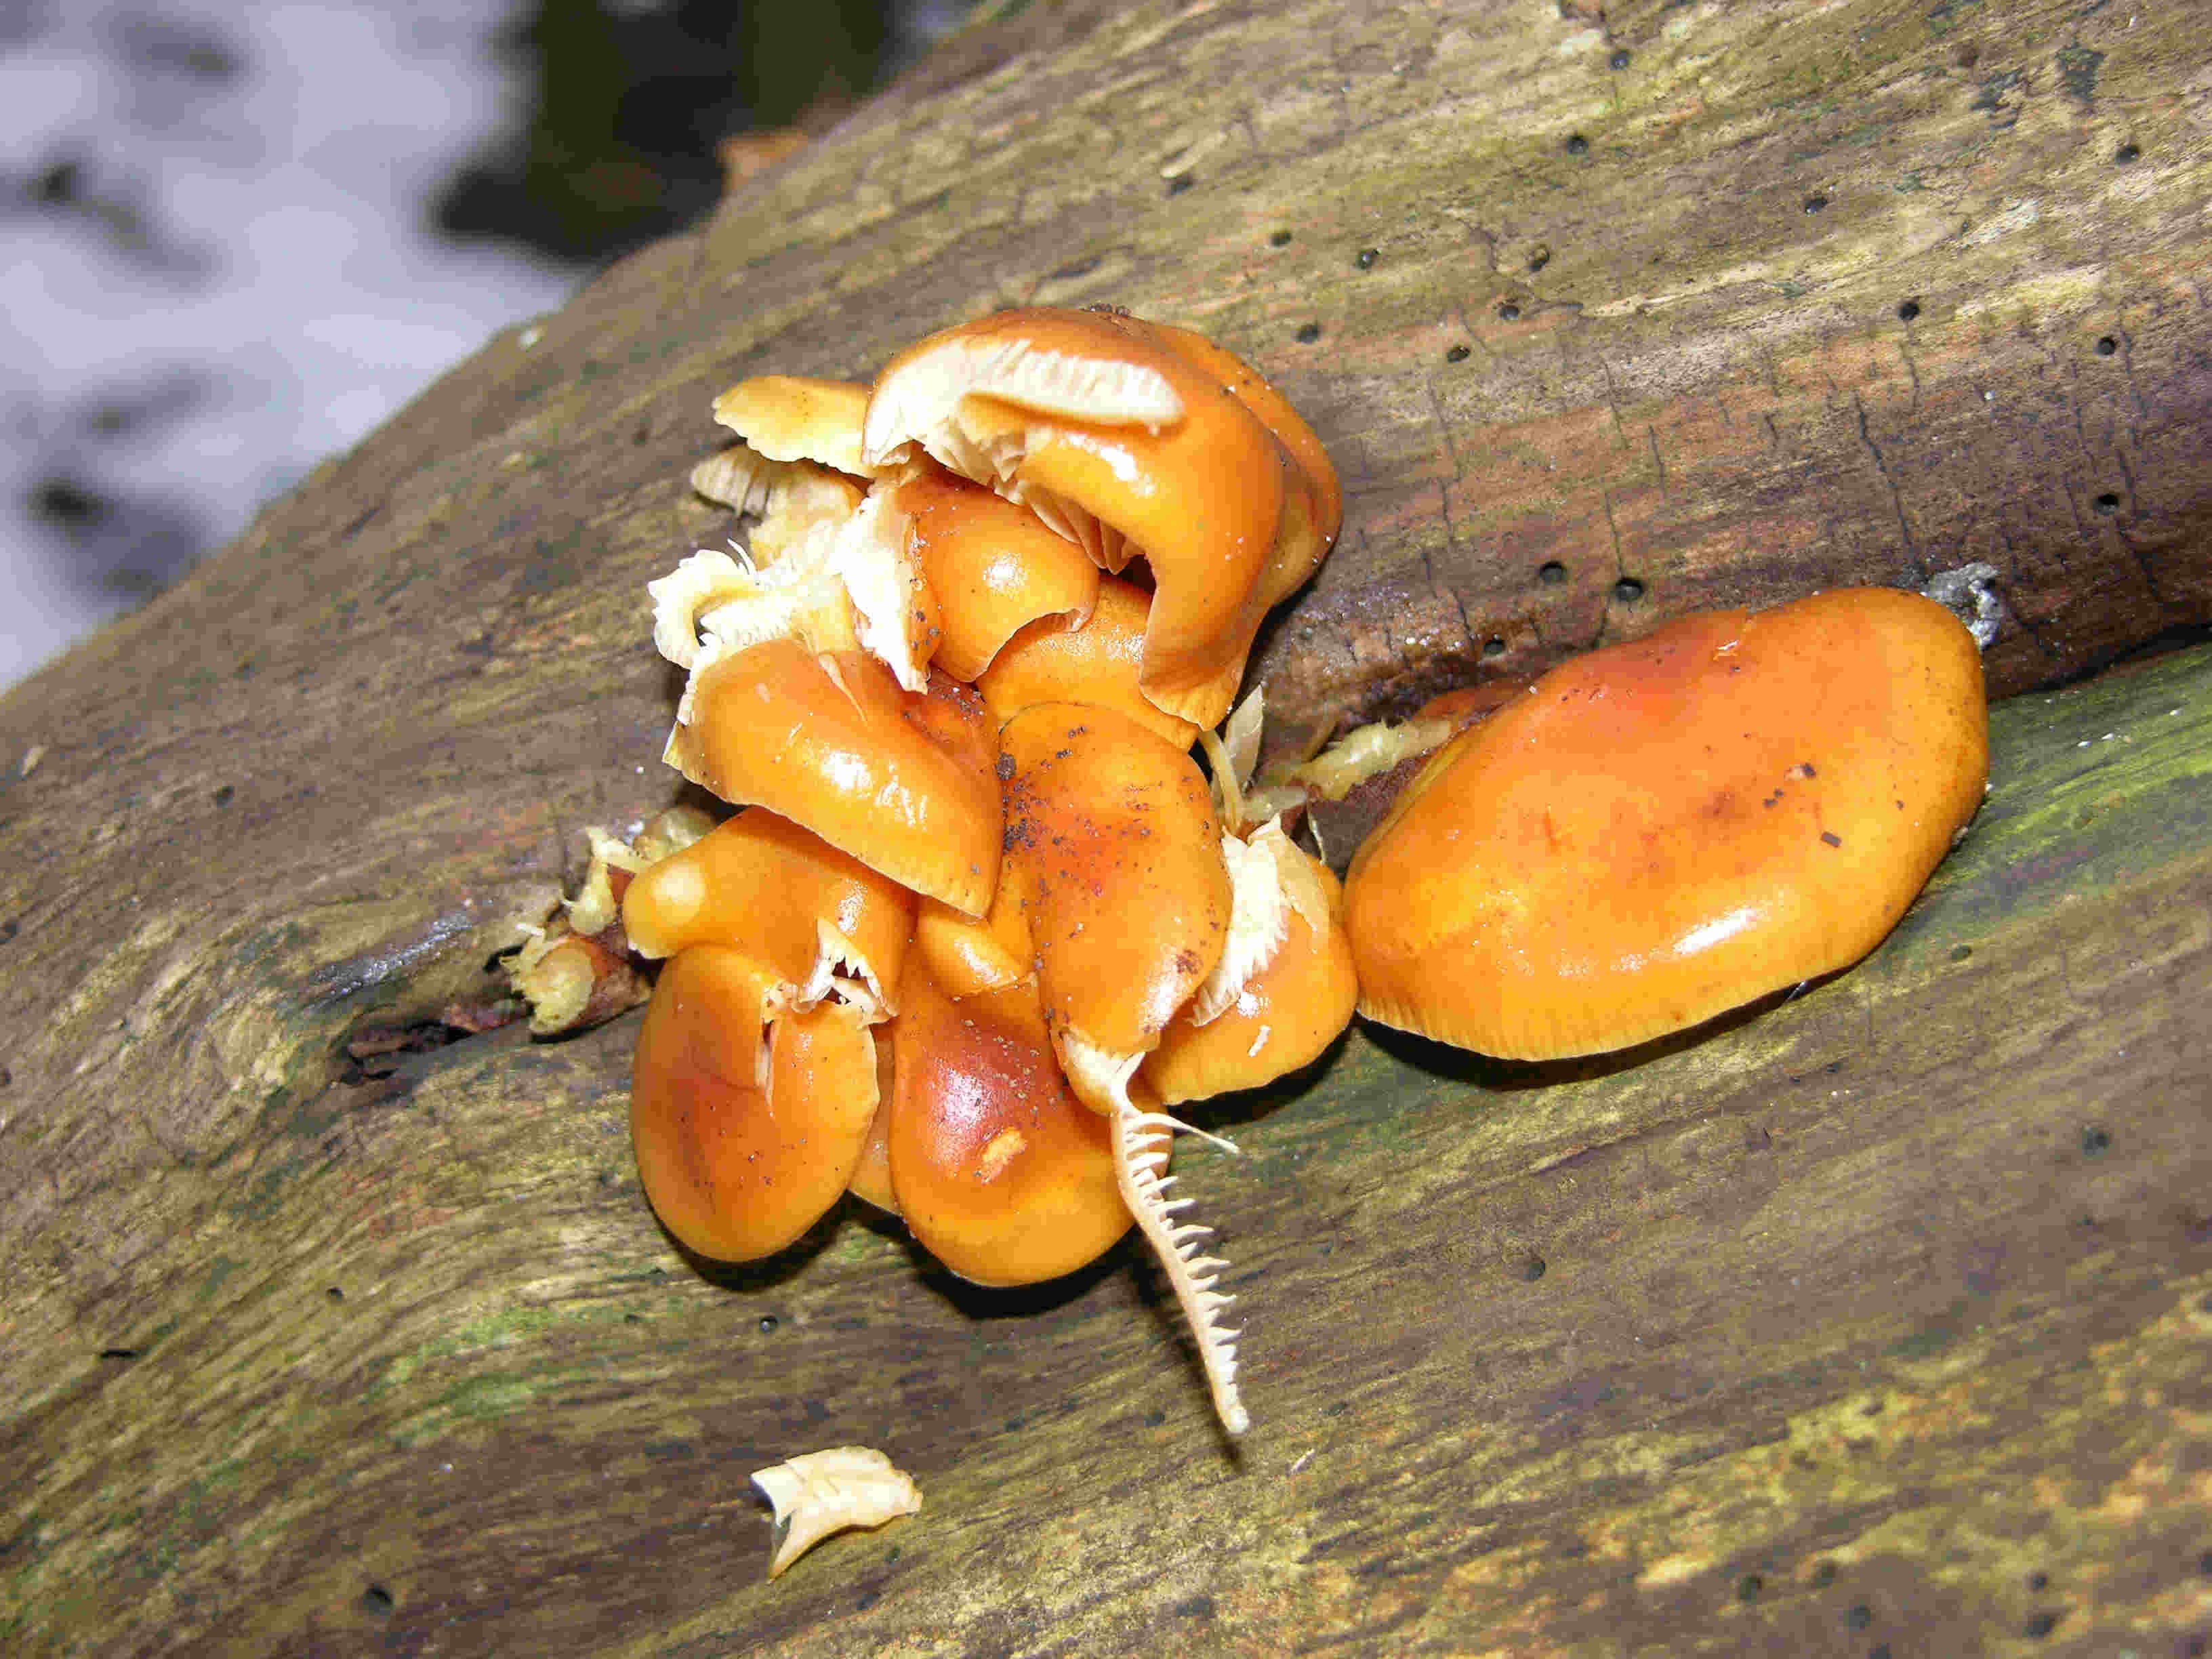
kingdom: Fungi
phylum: Basidiomycota
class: Agaricomycetes
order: Agaricales
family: Physalacriaceae
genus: Flammulina
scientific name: Flammulina velutipes
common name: gul fløjlsfod
